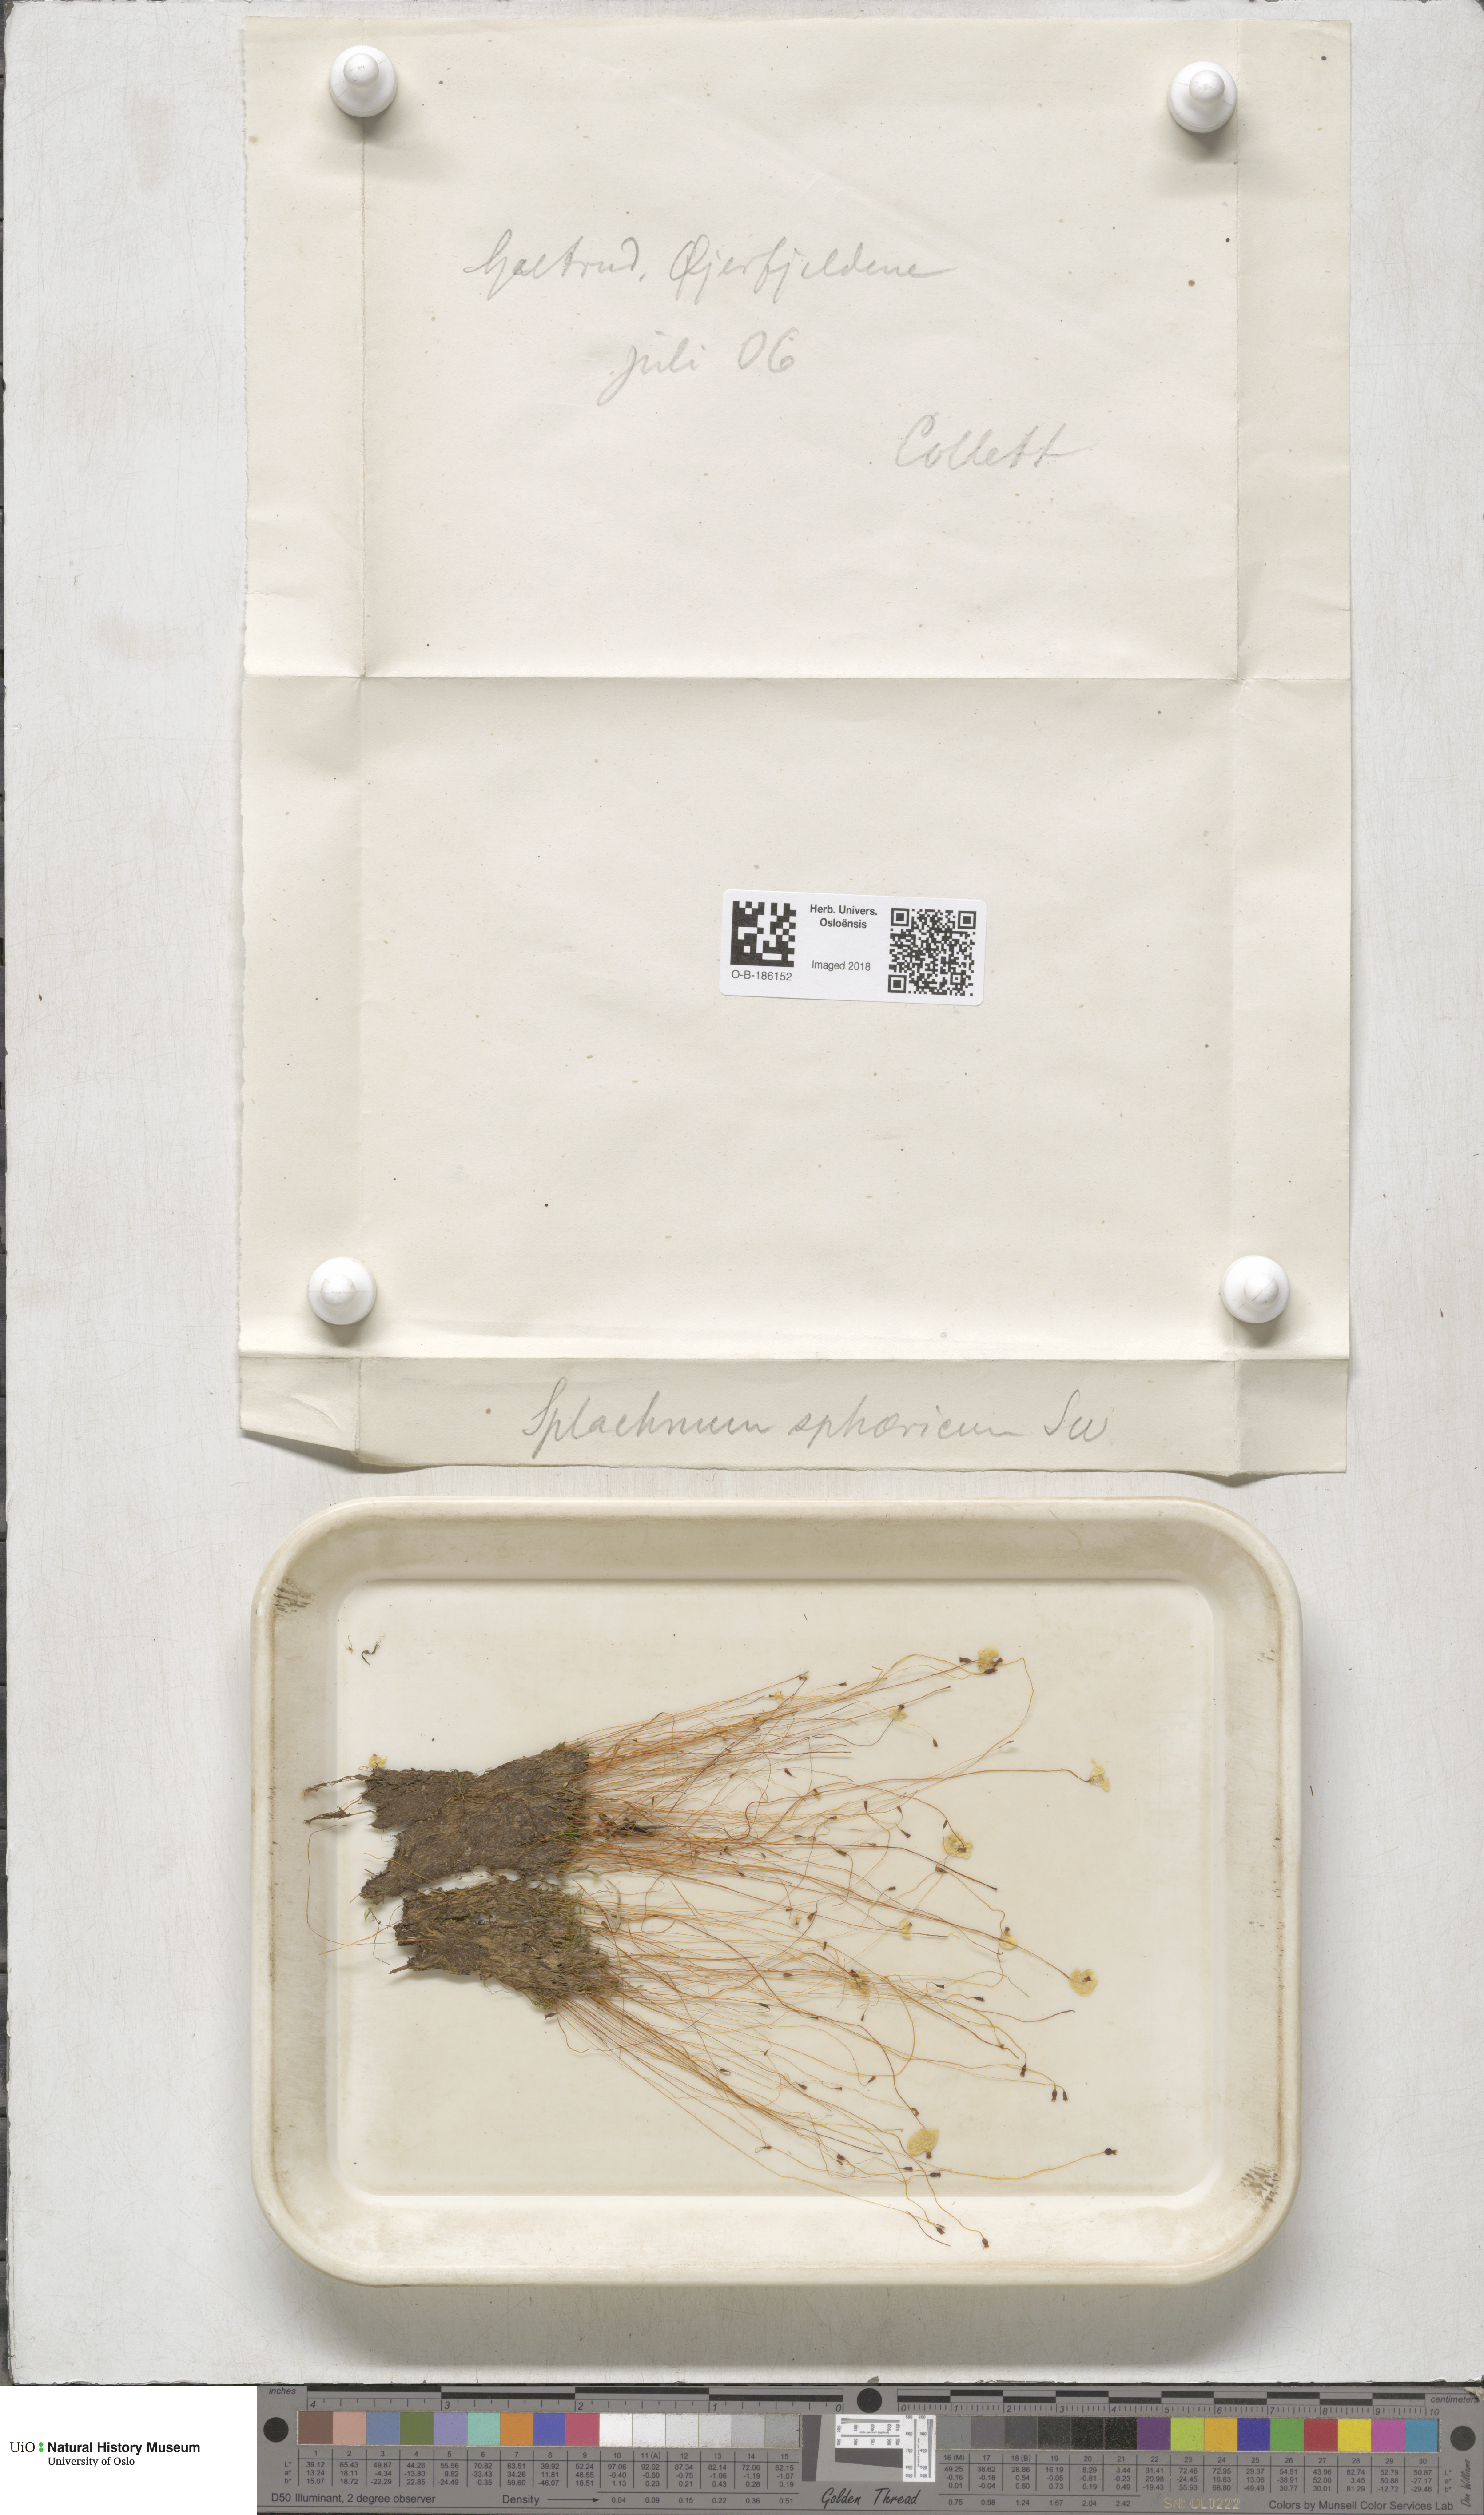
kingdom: Plantae
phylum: Bryophyta
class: Bryopsida
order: Splachnales
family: Splachnaceae
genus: Splachnum
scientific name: Splachnum sphaericum
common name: Round-fruited dung moss
